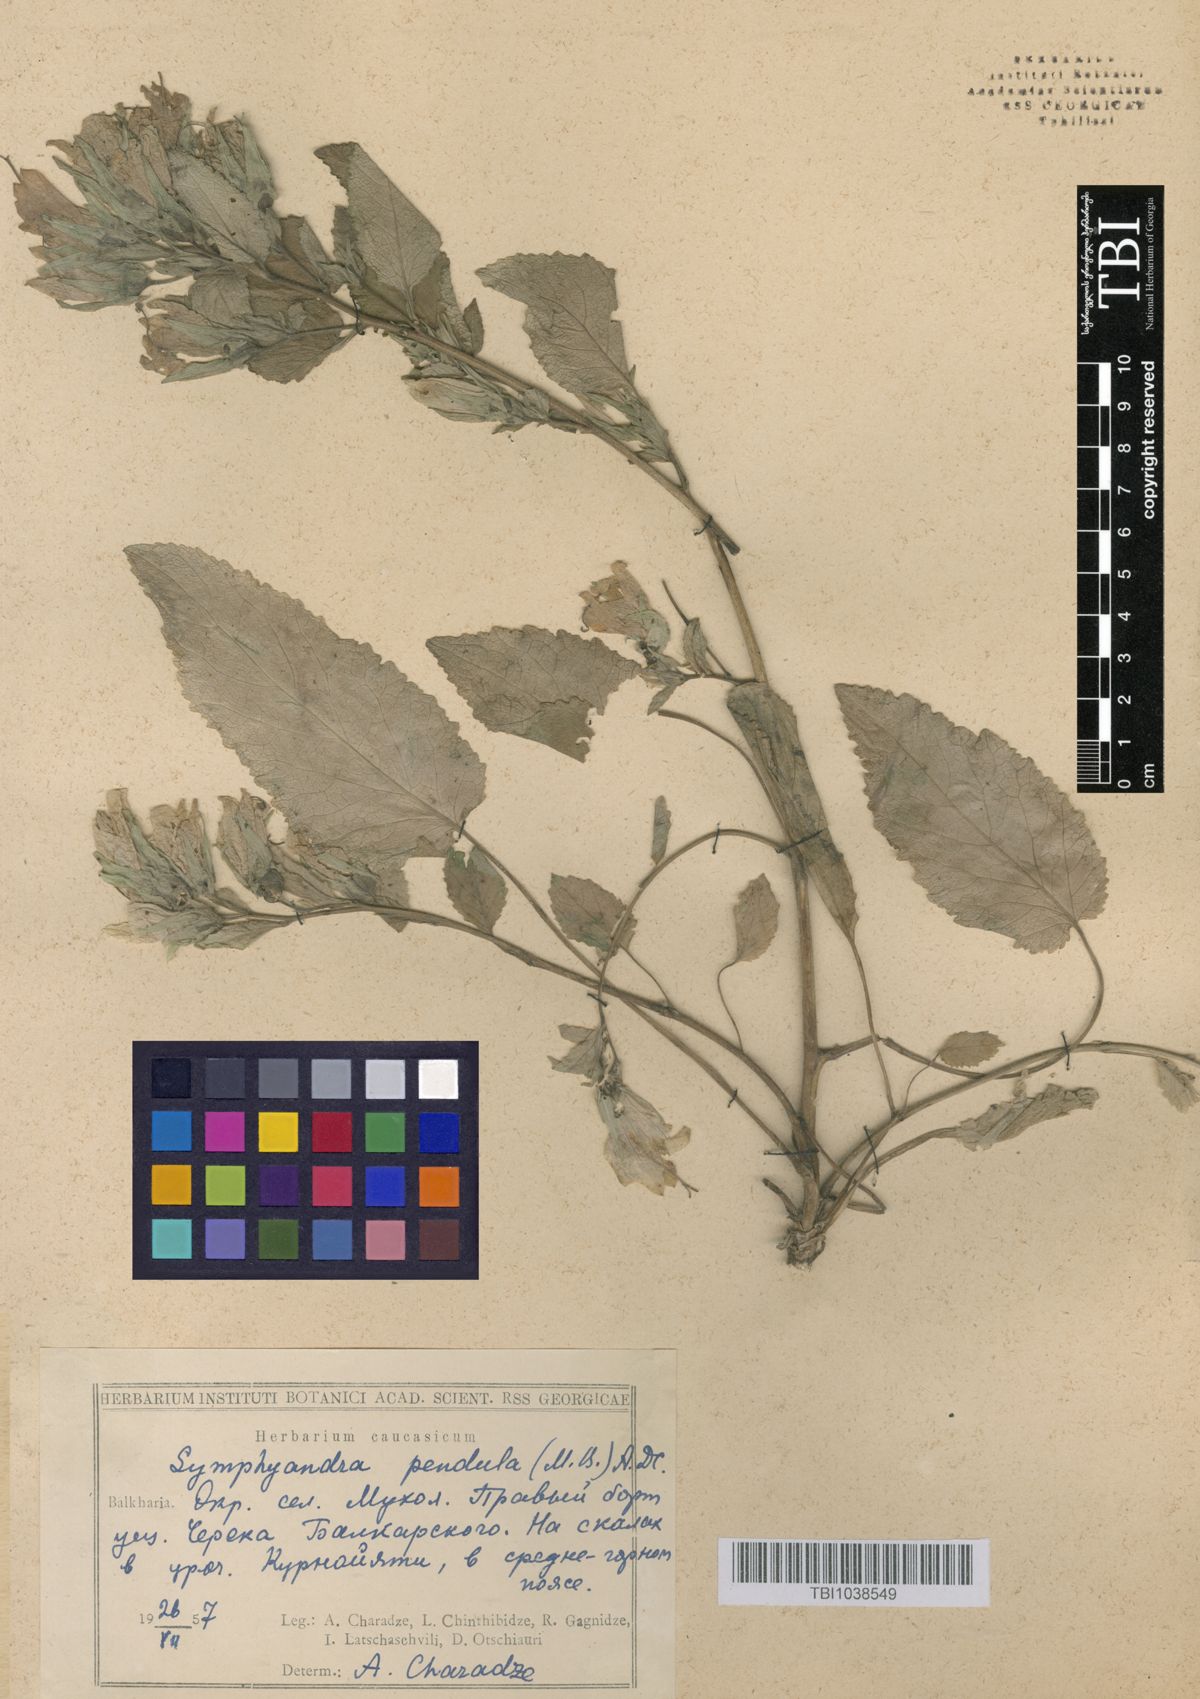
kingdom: Plantae
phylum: Tracheophyta
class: Magnoliopsida
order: Asterales
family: Campanulaceae
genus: Campanula
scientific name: Campanula pendula
